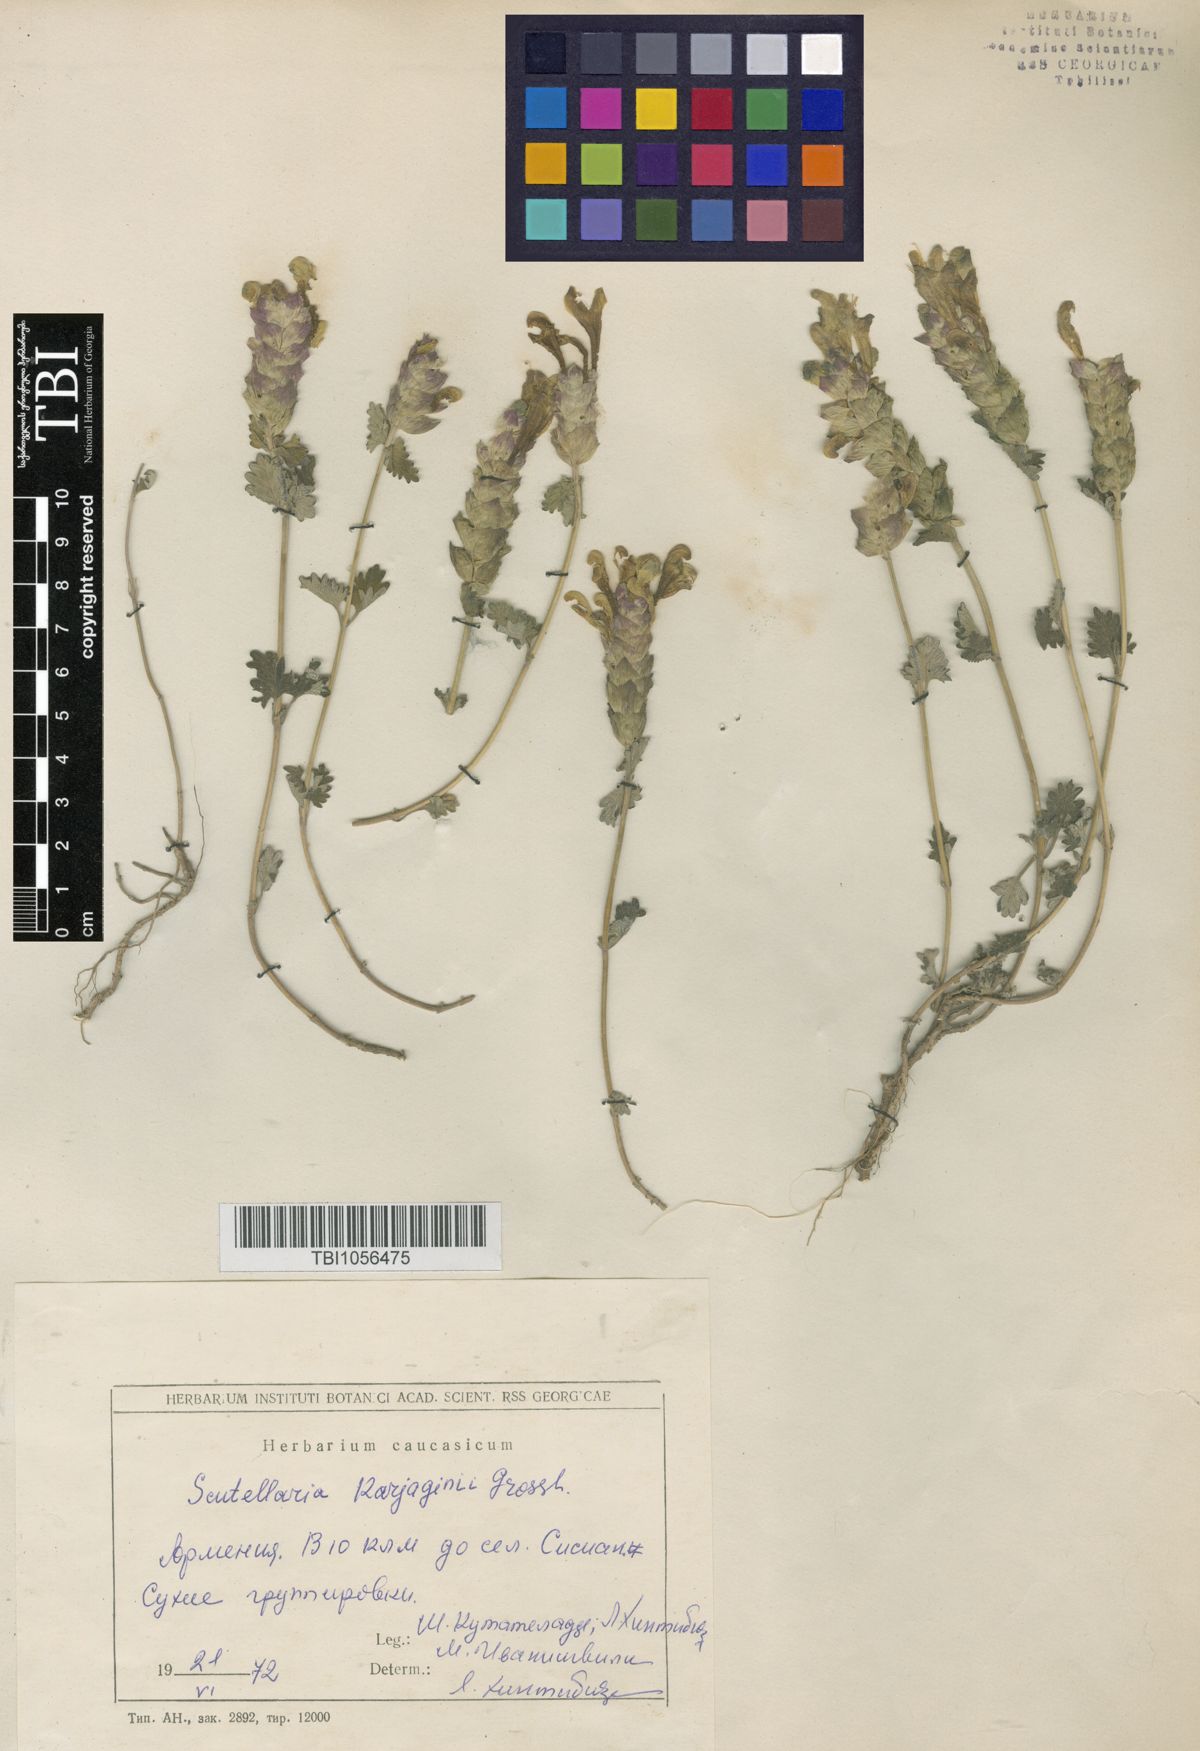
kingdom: Plantae
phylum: Tracheophyta
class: Magnoliopsida
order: Lamiales
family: Lamiaceae
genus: Scutellaria
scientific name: Scutellaria karjaginii
